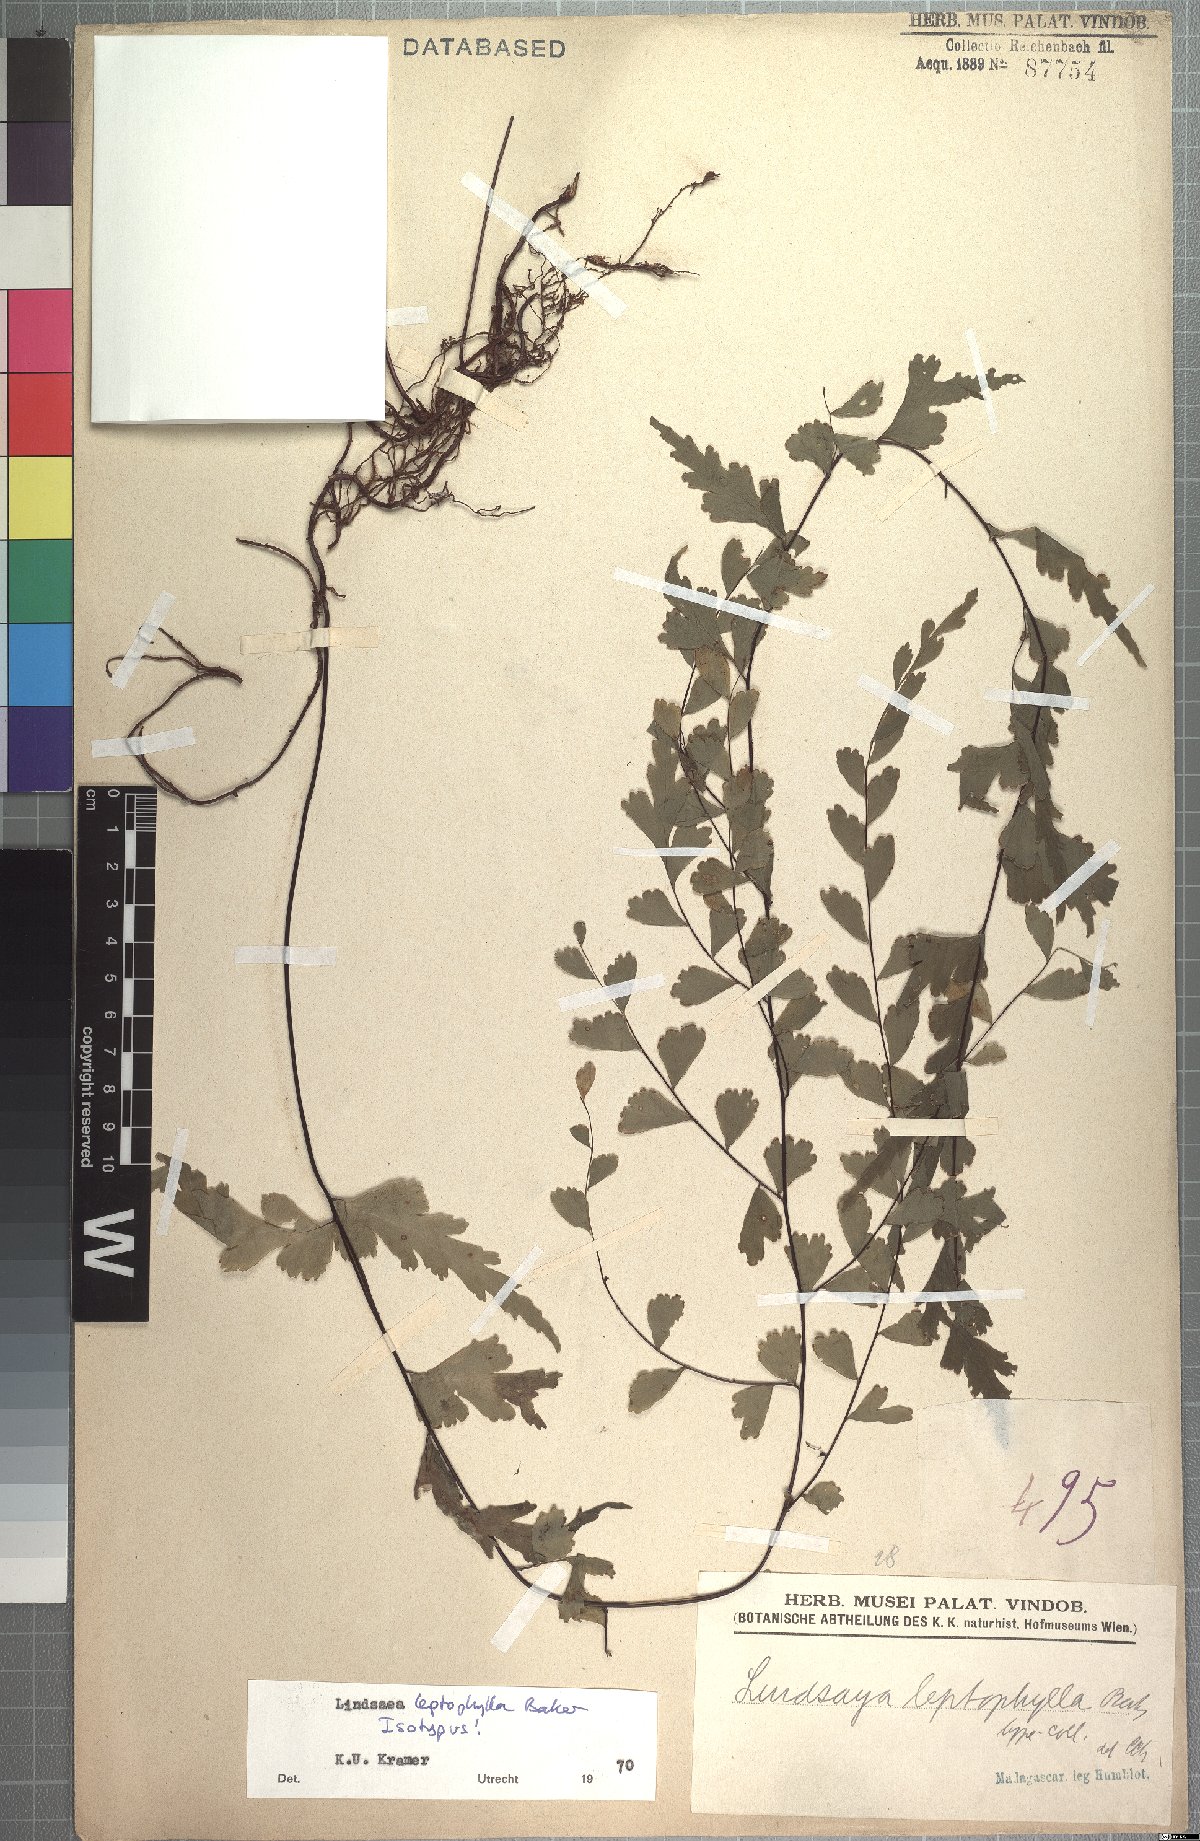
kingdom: Plantae
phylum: Tracheophyta
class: Polypodiopsida
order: Polypodiales
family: Lindsaeaceae
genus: Lindsaea
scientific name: Lindsaea leptophylla
